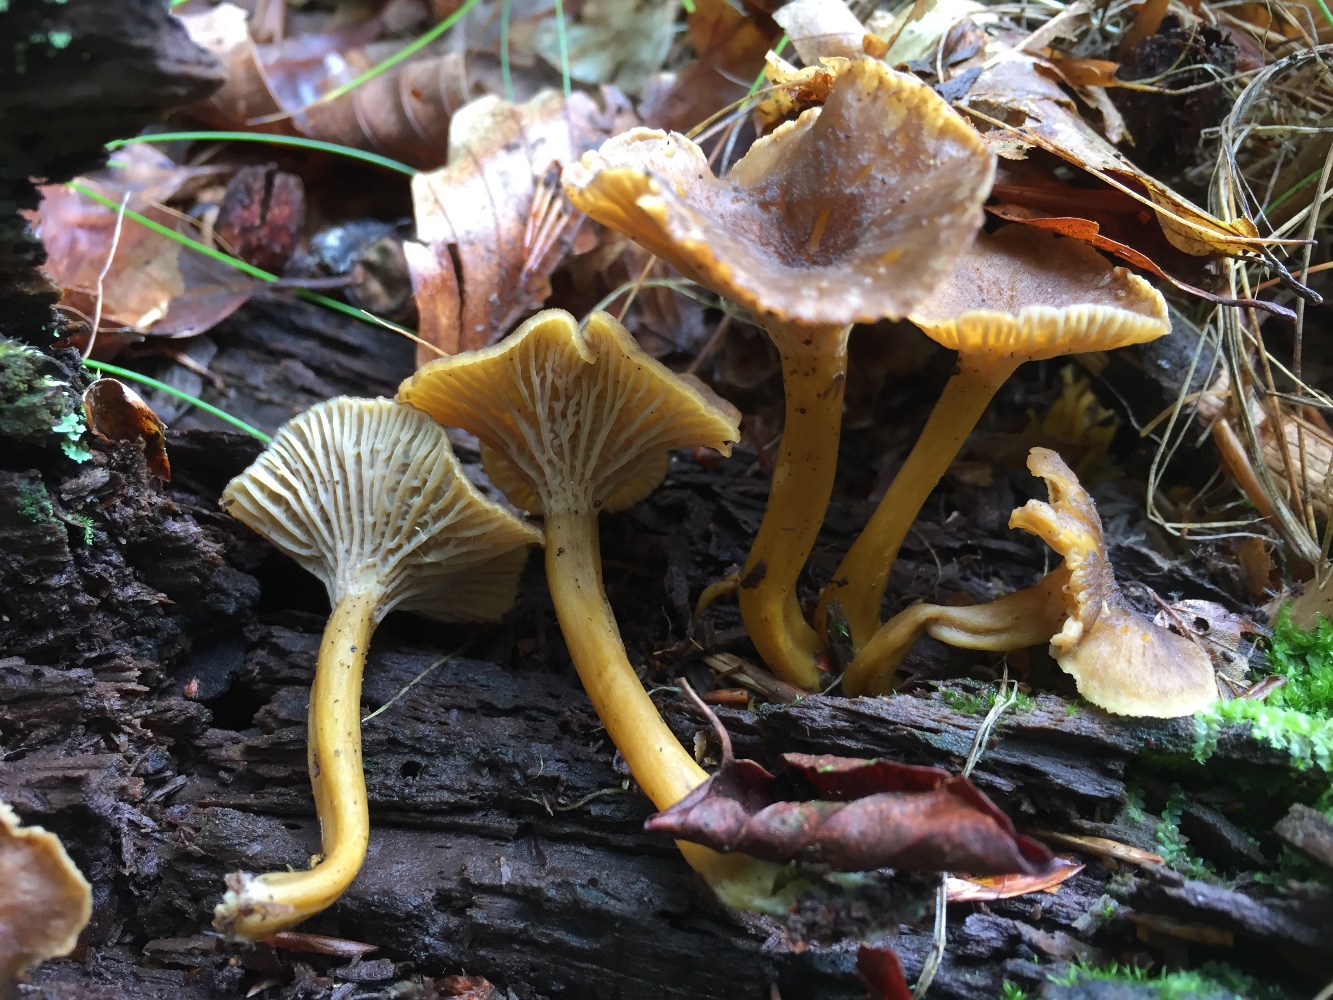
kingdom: Fungi
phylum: Basidiomycota
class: Agaricomycetes
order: Cantharellales
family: Hydnaceae
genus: Craterellus
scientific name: Craterellus tubaeformis
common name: tragt-kantarel
